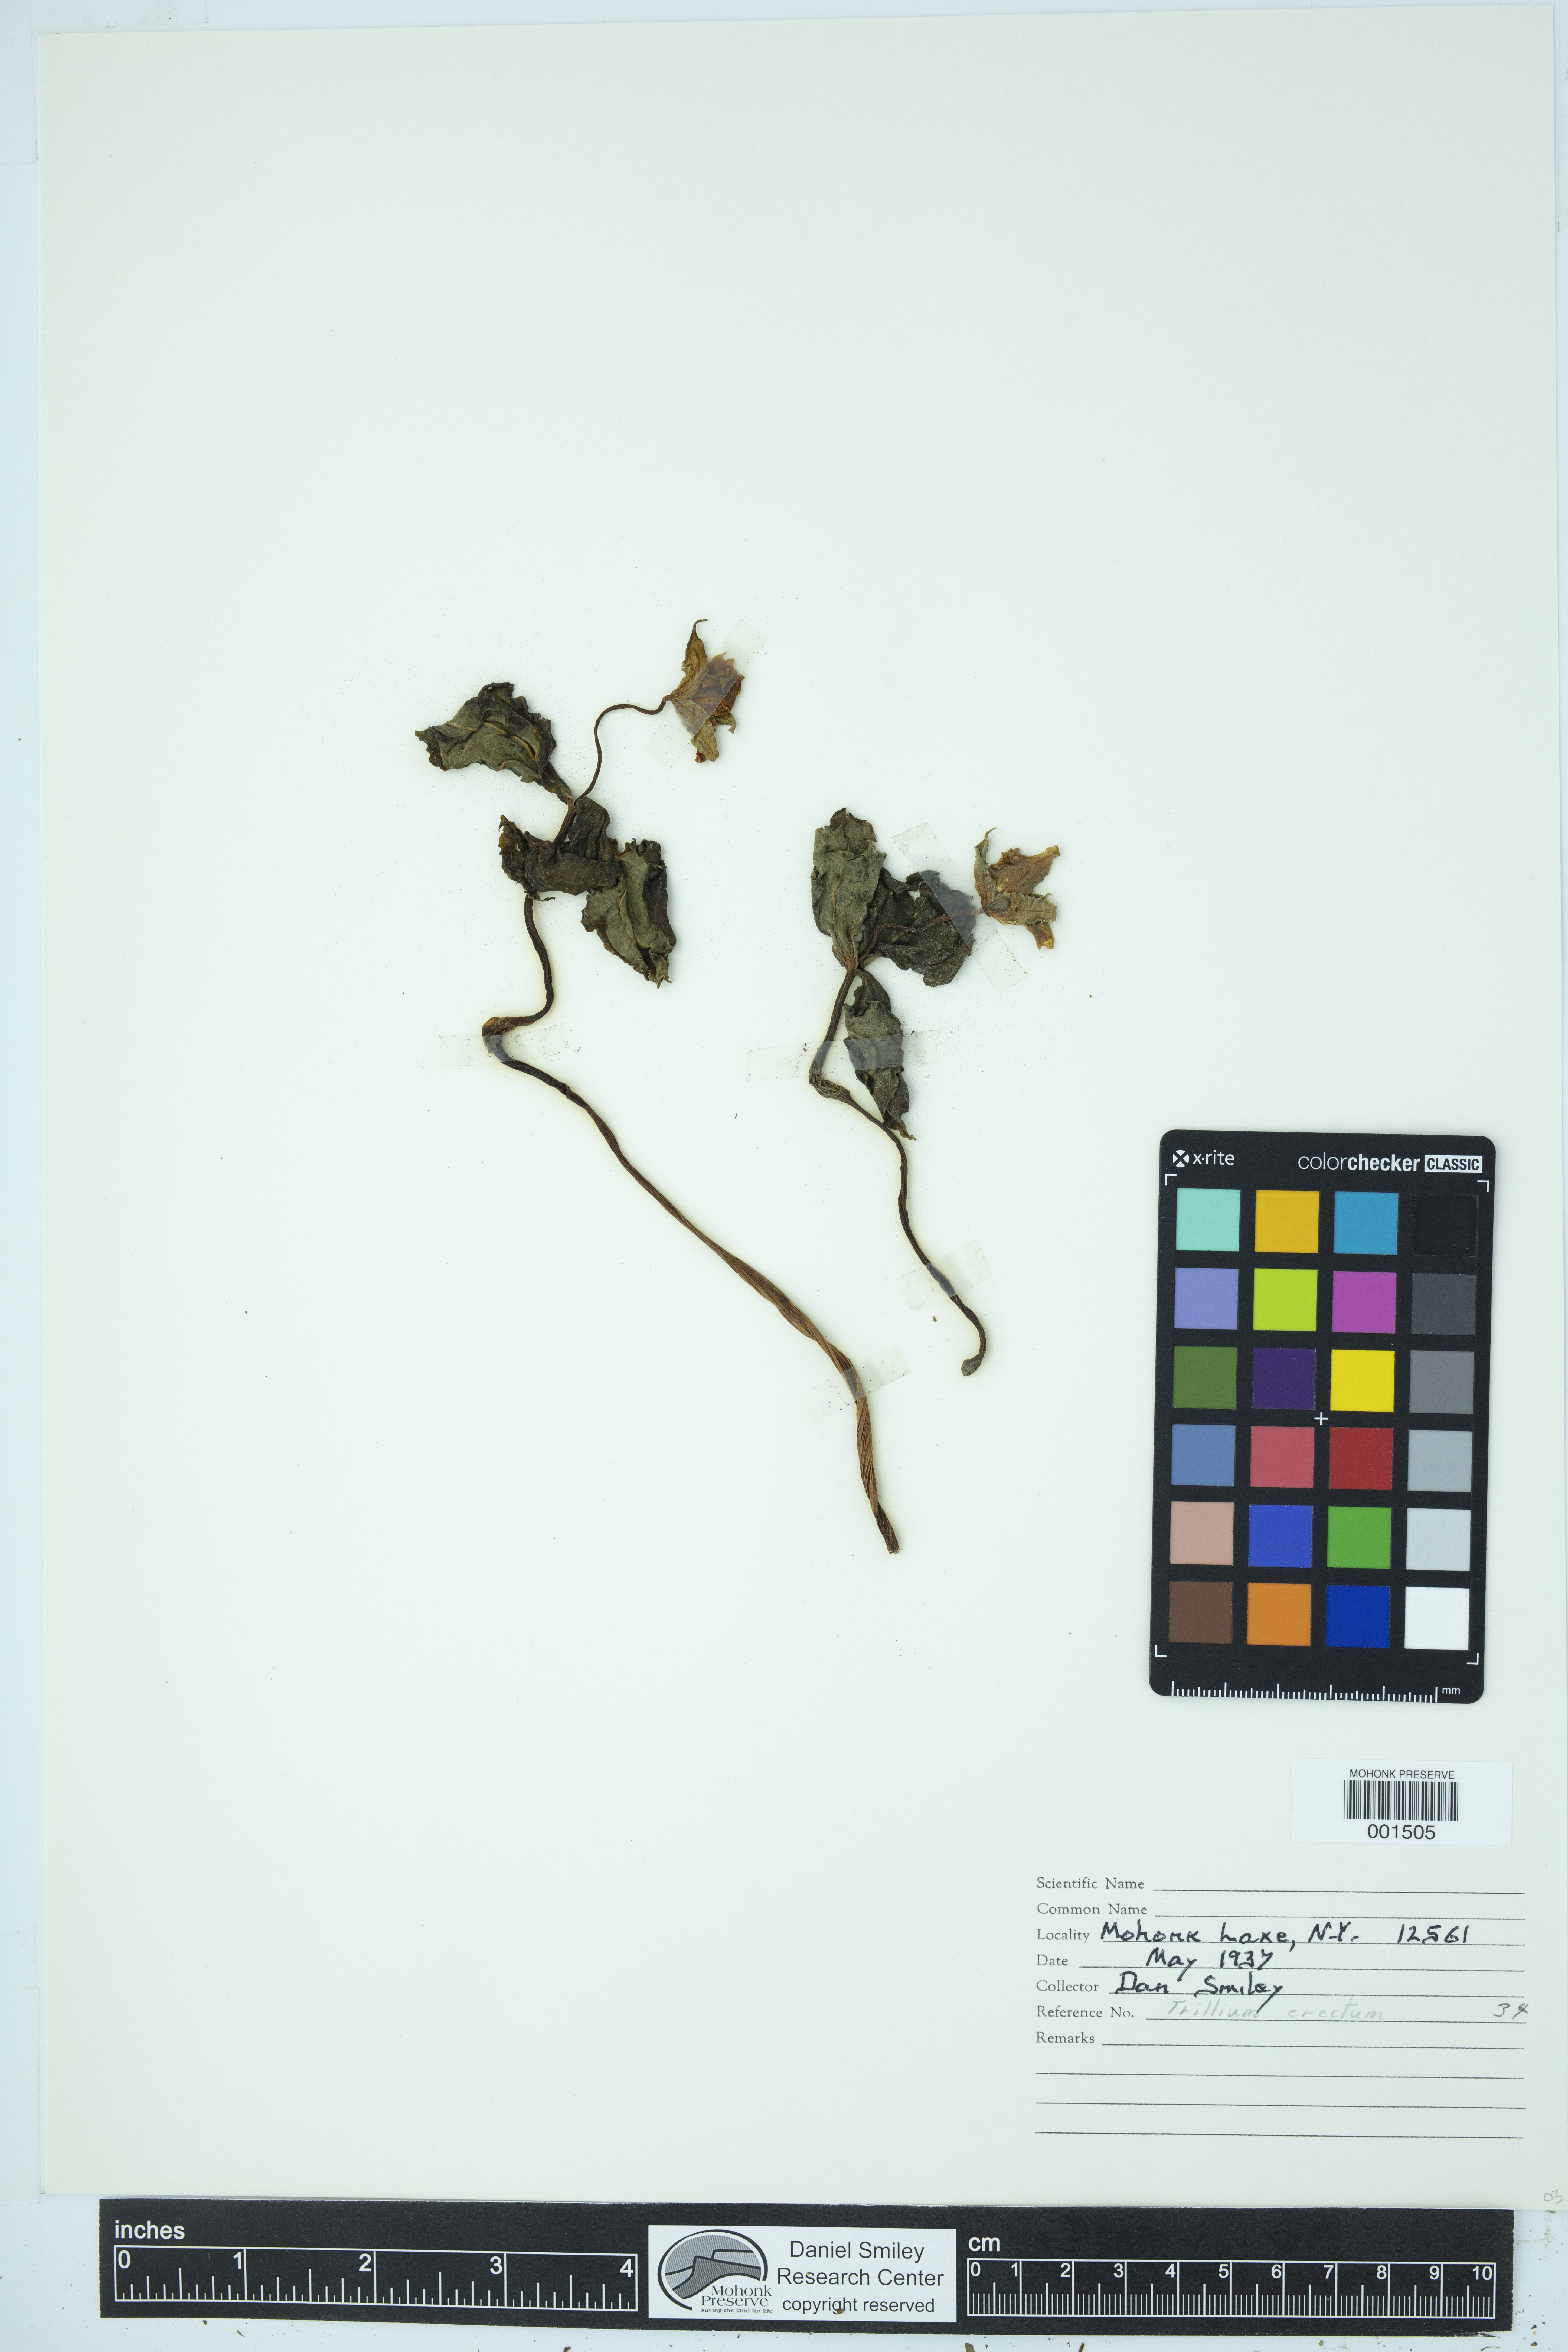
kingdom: Plantae
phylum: Tracheophyta
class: Liliopsida
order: Liliales
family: Melanthiaceae
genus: Trillium
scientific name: Trillium erectum
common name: Purple trillium
